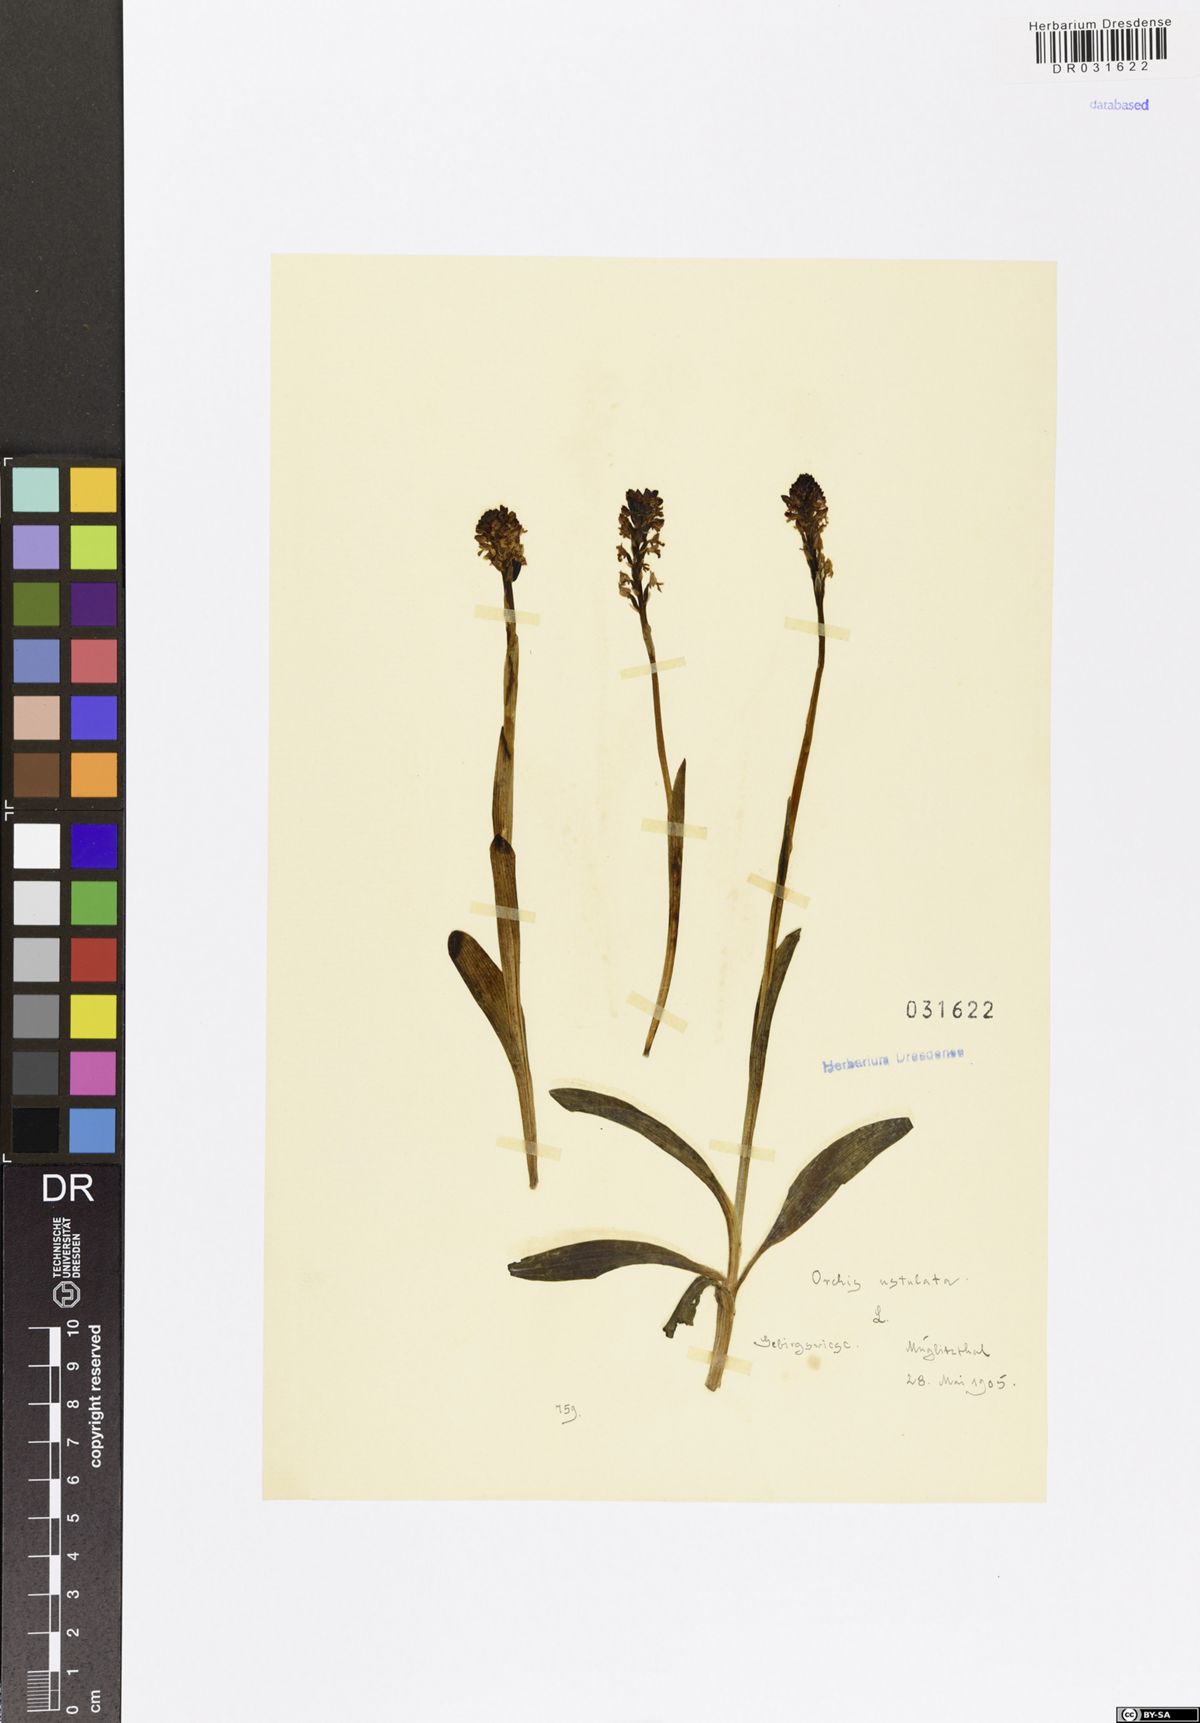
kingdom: Plantae
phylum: Tracheophyta
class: Liliopsida
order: Asparagales
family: Orchidaceae
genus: Neotinea
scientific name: Neotinea ustulata
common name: Burnt orchid
